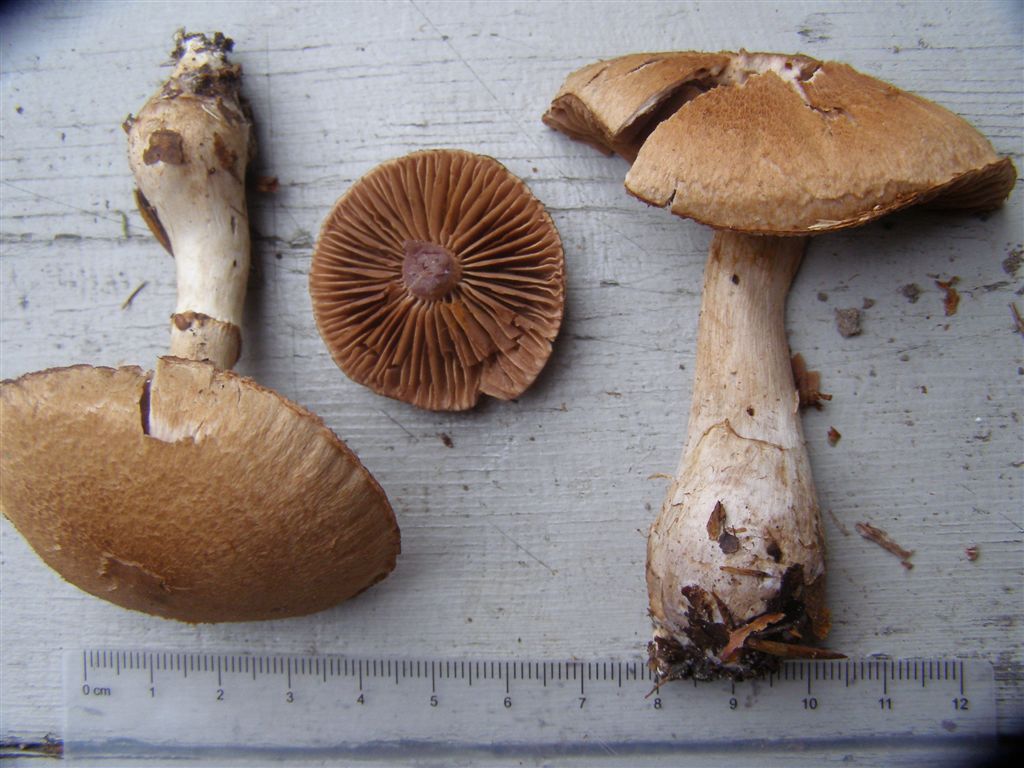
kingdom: Fungi
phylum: Basidiomycota
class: Agaricomycetes
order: Agaricales
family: Cortinariaceae
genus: Cortinarius
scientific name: Cortinarius torvus
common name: champignonagtig slørhat
